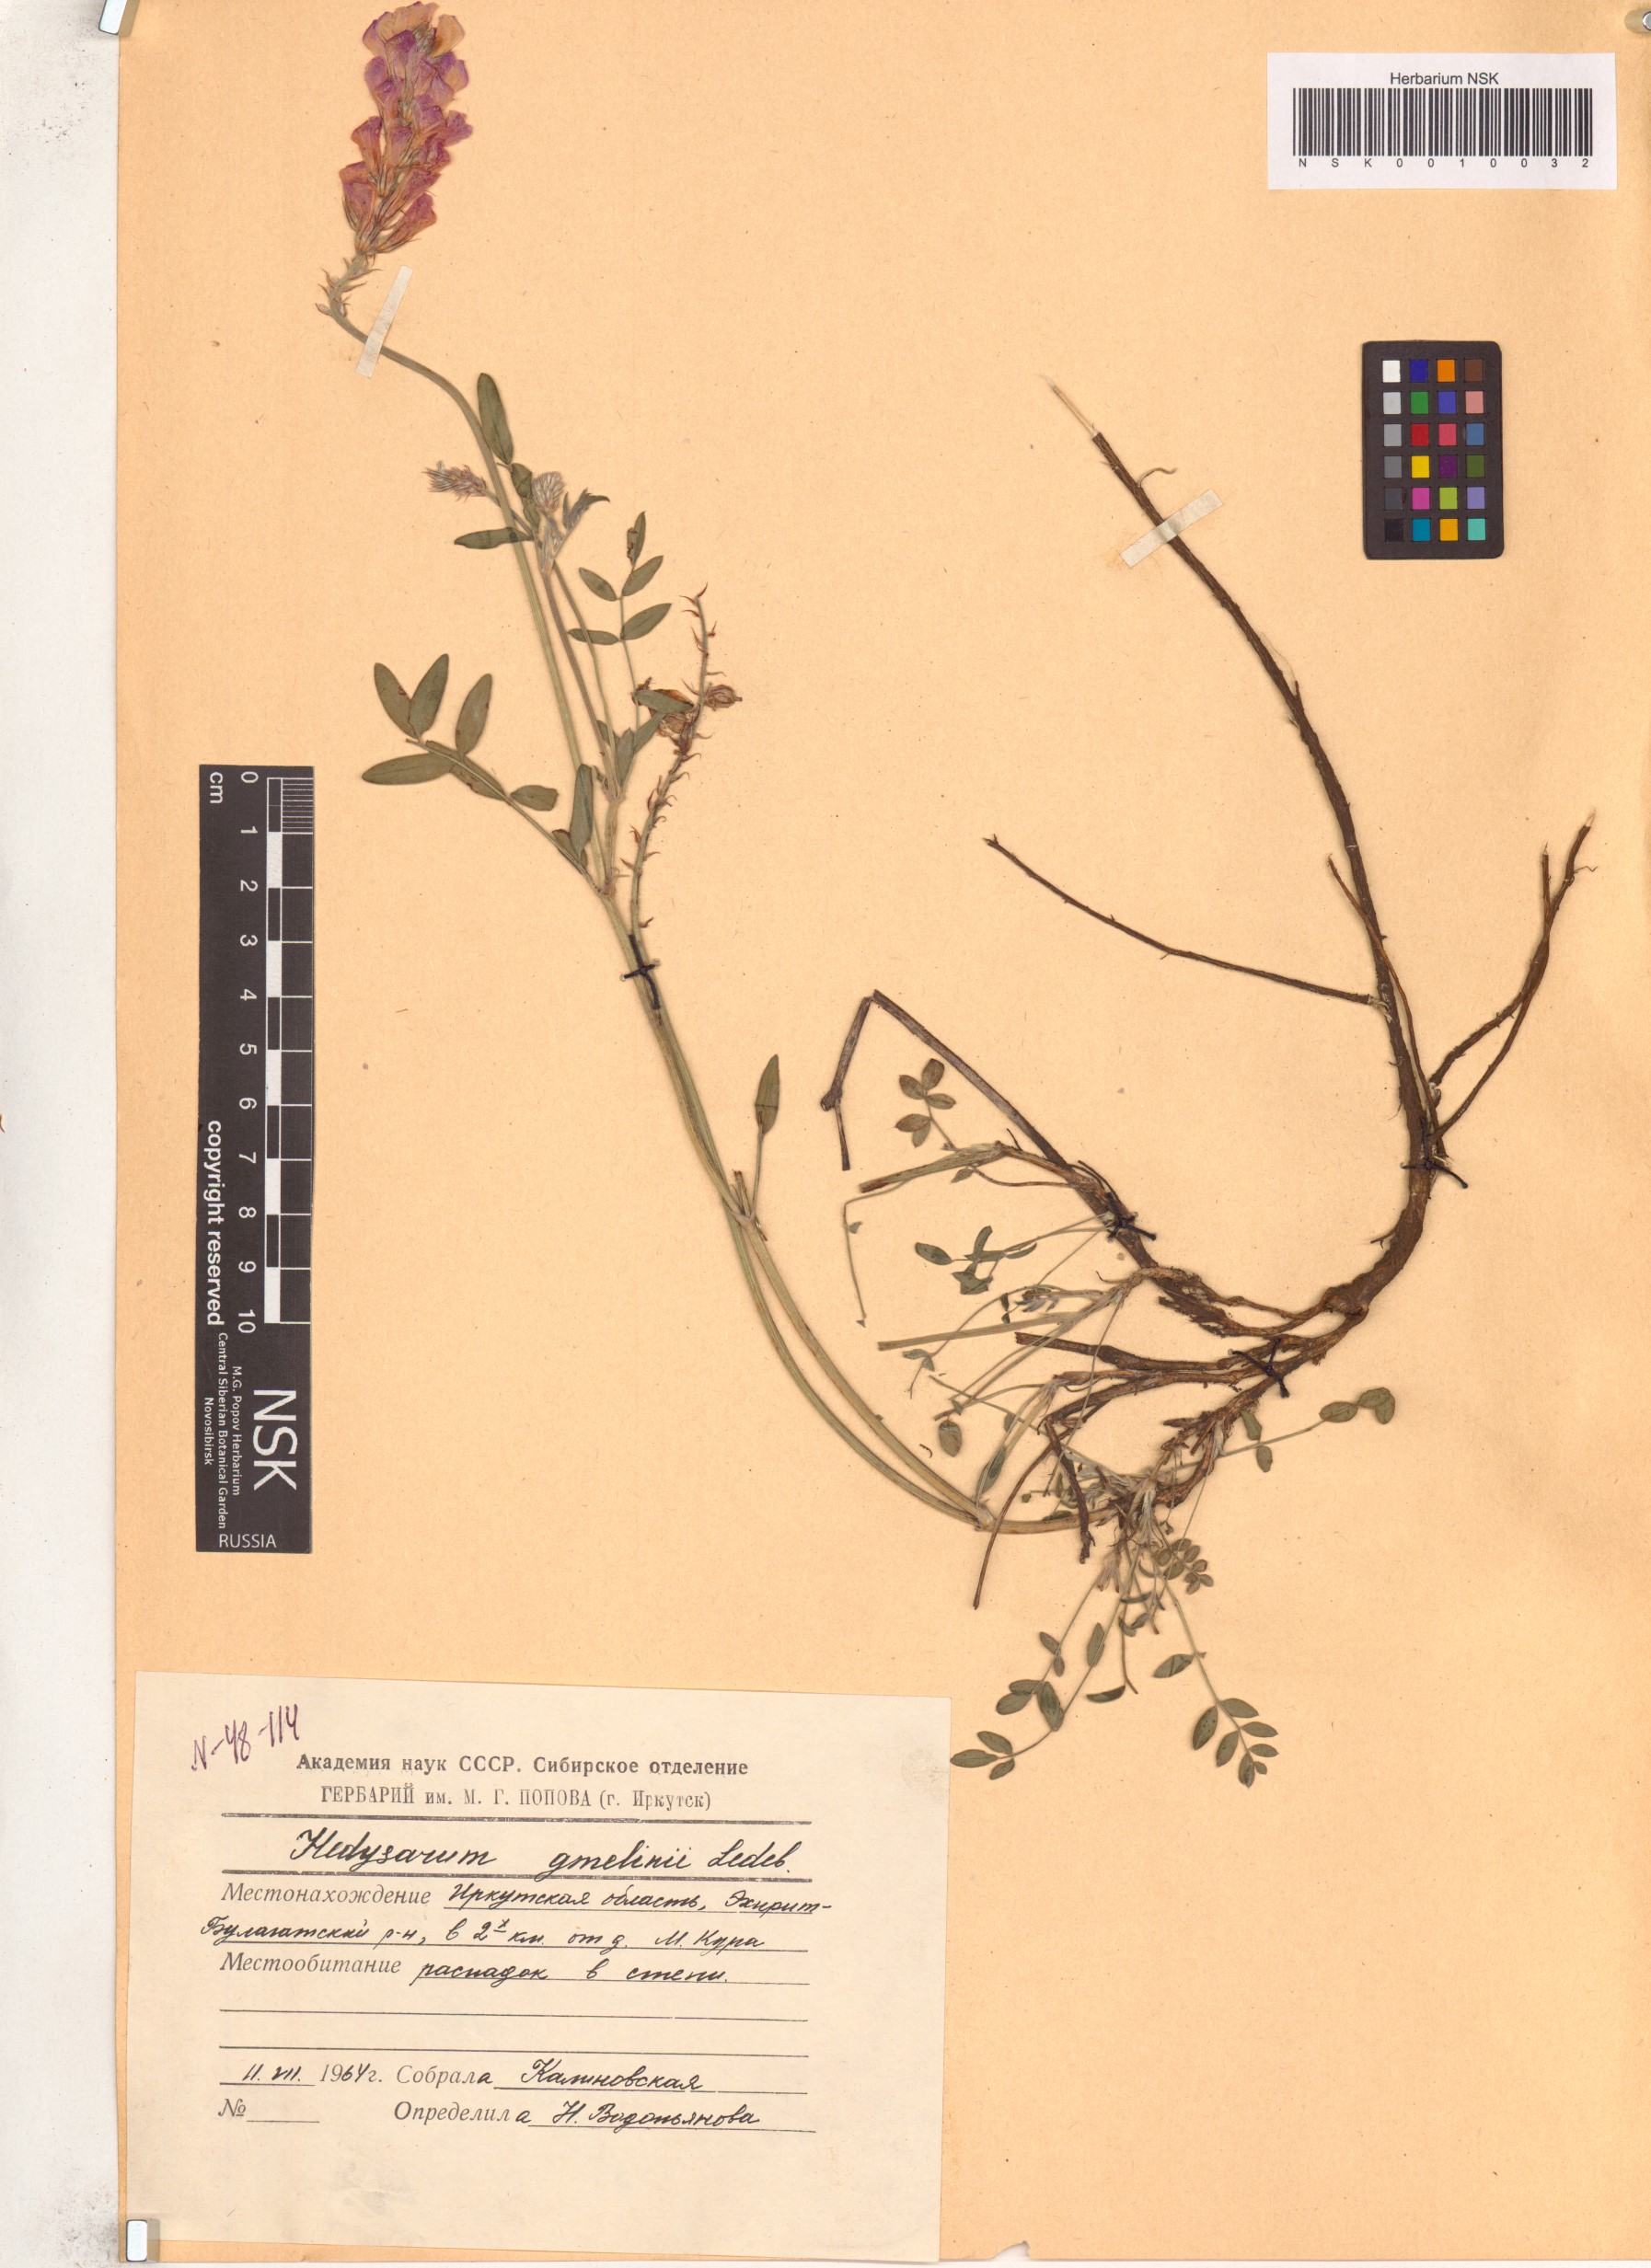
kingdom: Plantae
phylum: Tracheophyta
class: Magnoliopsida
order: Fabales
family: Fabaceae
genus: Hedysarum
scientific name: Hedysarum gmelinii
